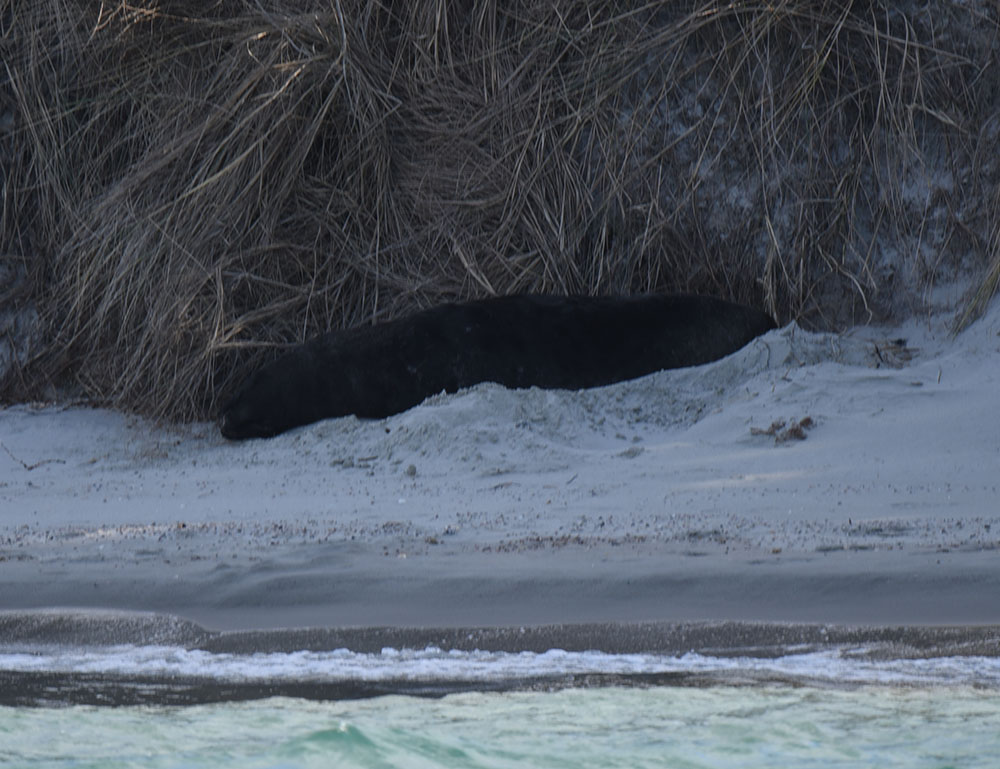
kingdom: Animalia
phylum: Chordata
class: Mammalia
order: Carnivora
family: Otariidae
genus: Phocarctos
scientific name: Phocarctos hookeri
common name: New zealand sea lion
